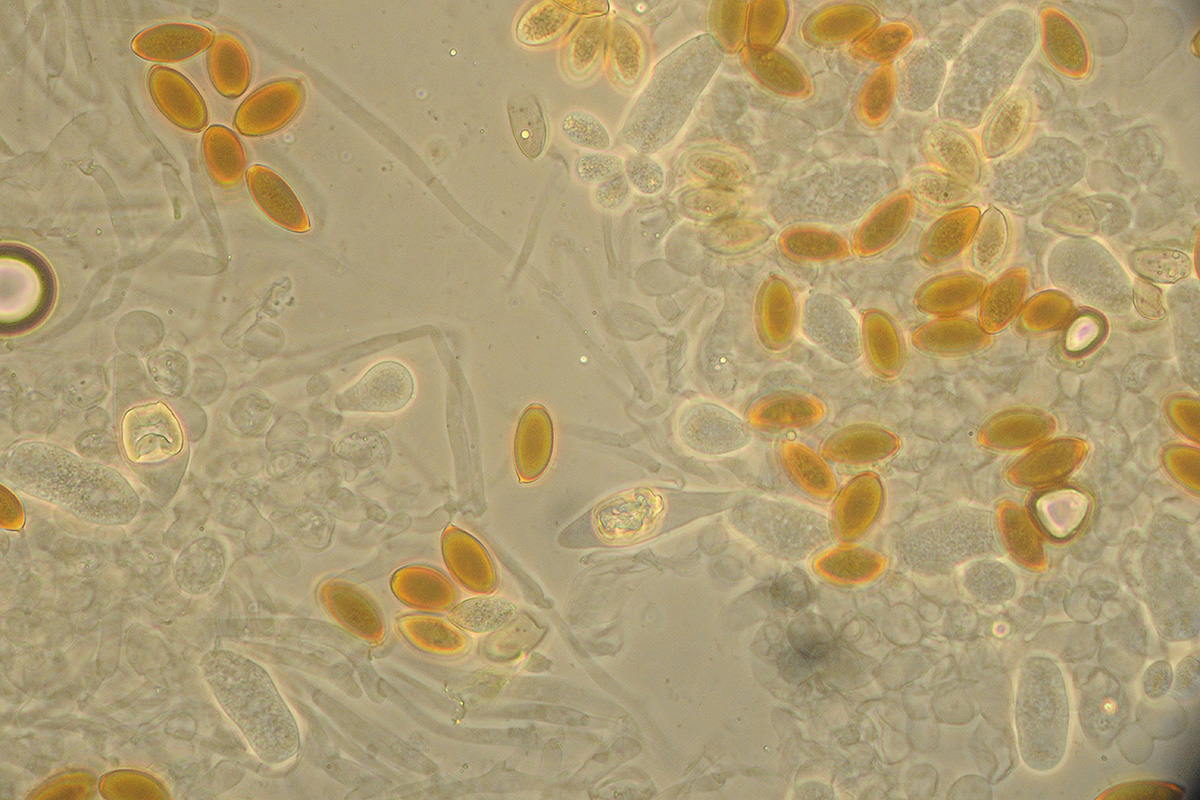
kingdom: Fungi
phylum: Basidiomycota
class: Agaricomycetes
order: Agaricales
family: Strophariaceae
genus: Protostropharia
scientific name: Protostropharia semiglobata
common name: halvkugleformet bredblad
